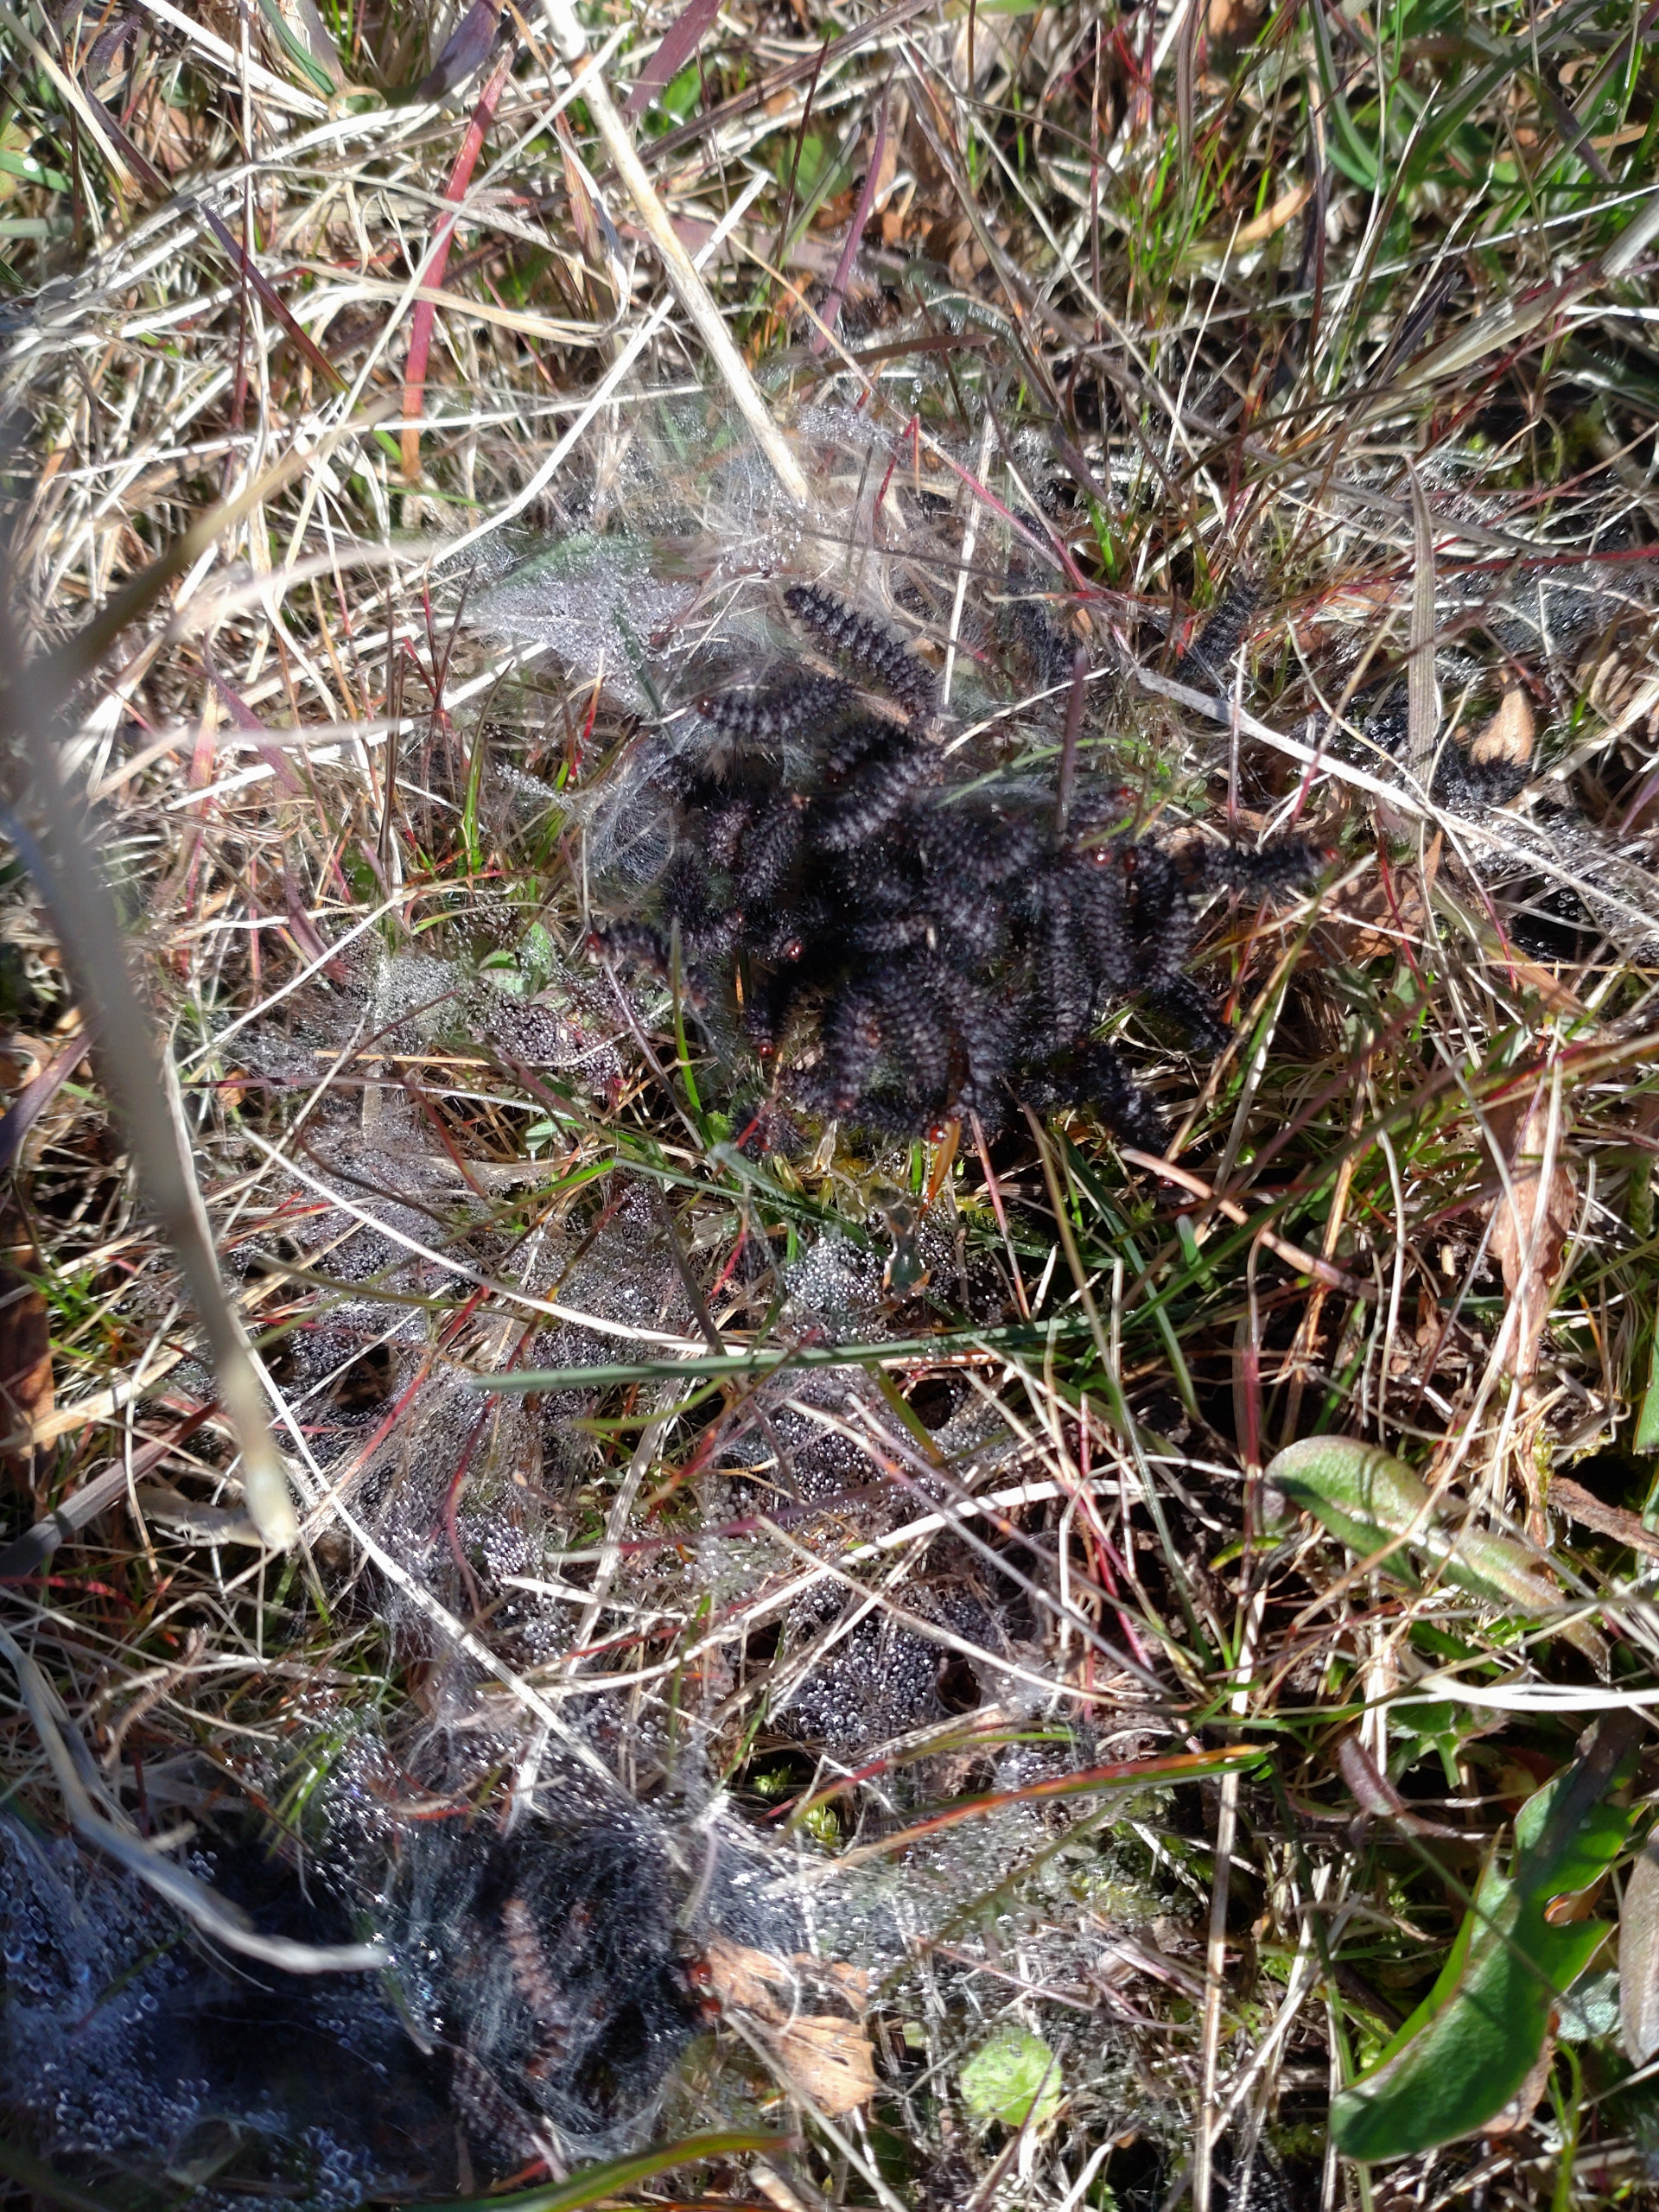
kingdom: Animalia
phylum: Arthropoda
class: Insecta
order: Lepidoptera
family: Nymphalidae
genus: Melitaea
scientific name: Melitaea cinxia
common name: Okkergul pletvinge
